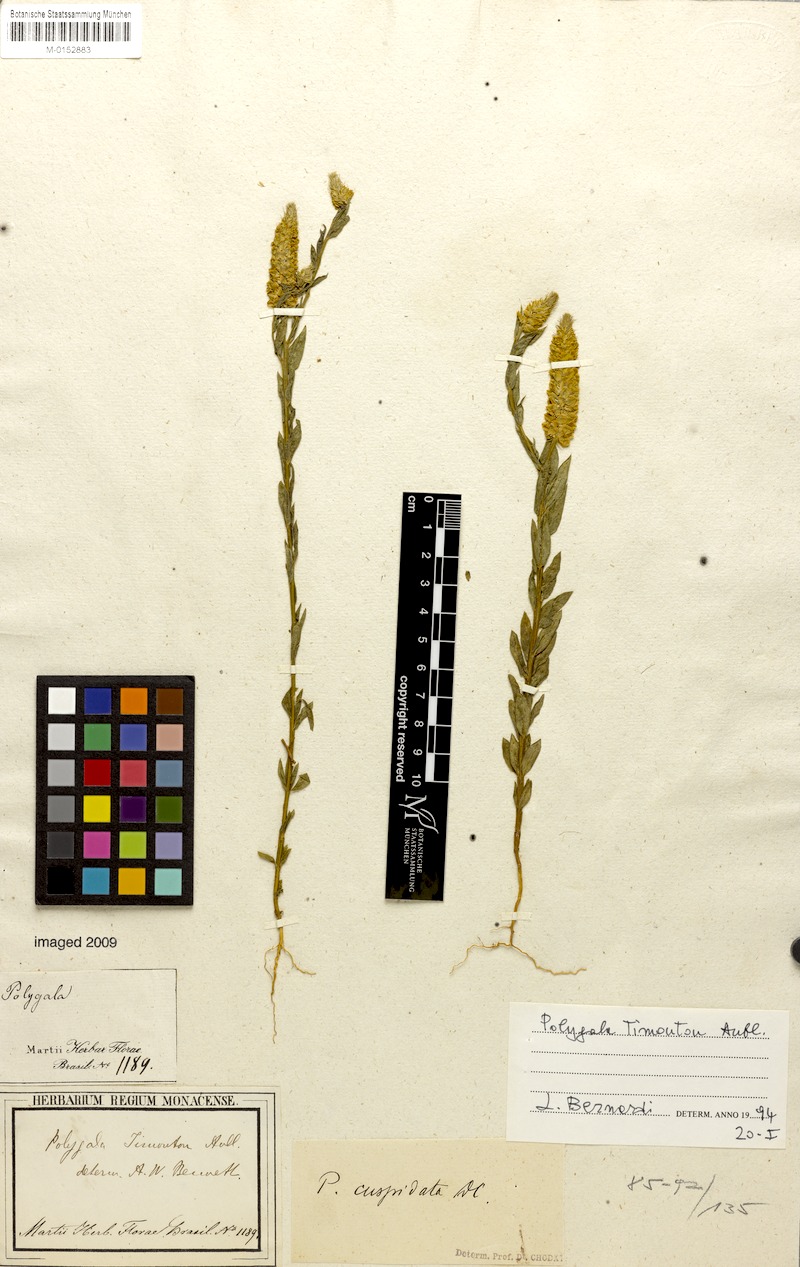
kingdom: Plantae
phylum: Tracheophyta
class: Magnoliopsida
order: Fabales
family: Polygalaceae
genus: Polygala
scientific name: Polygala timoutou
